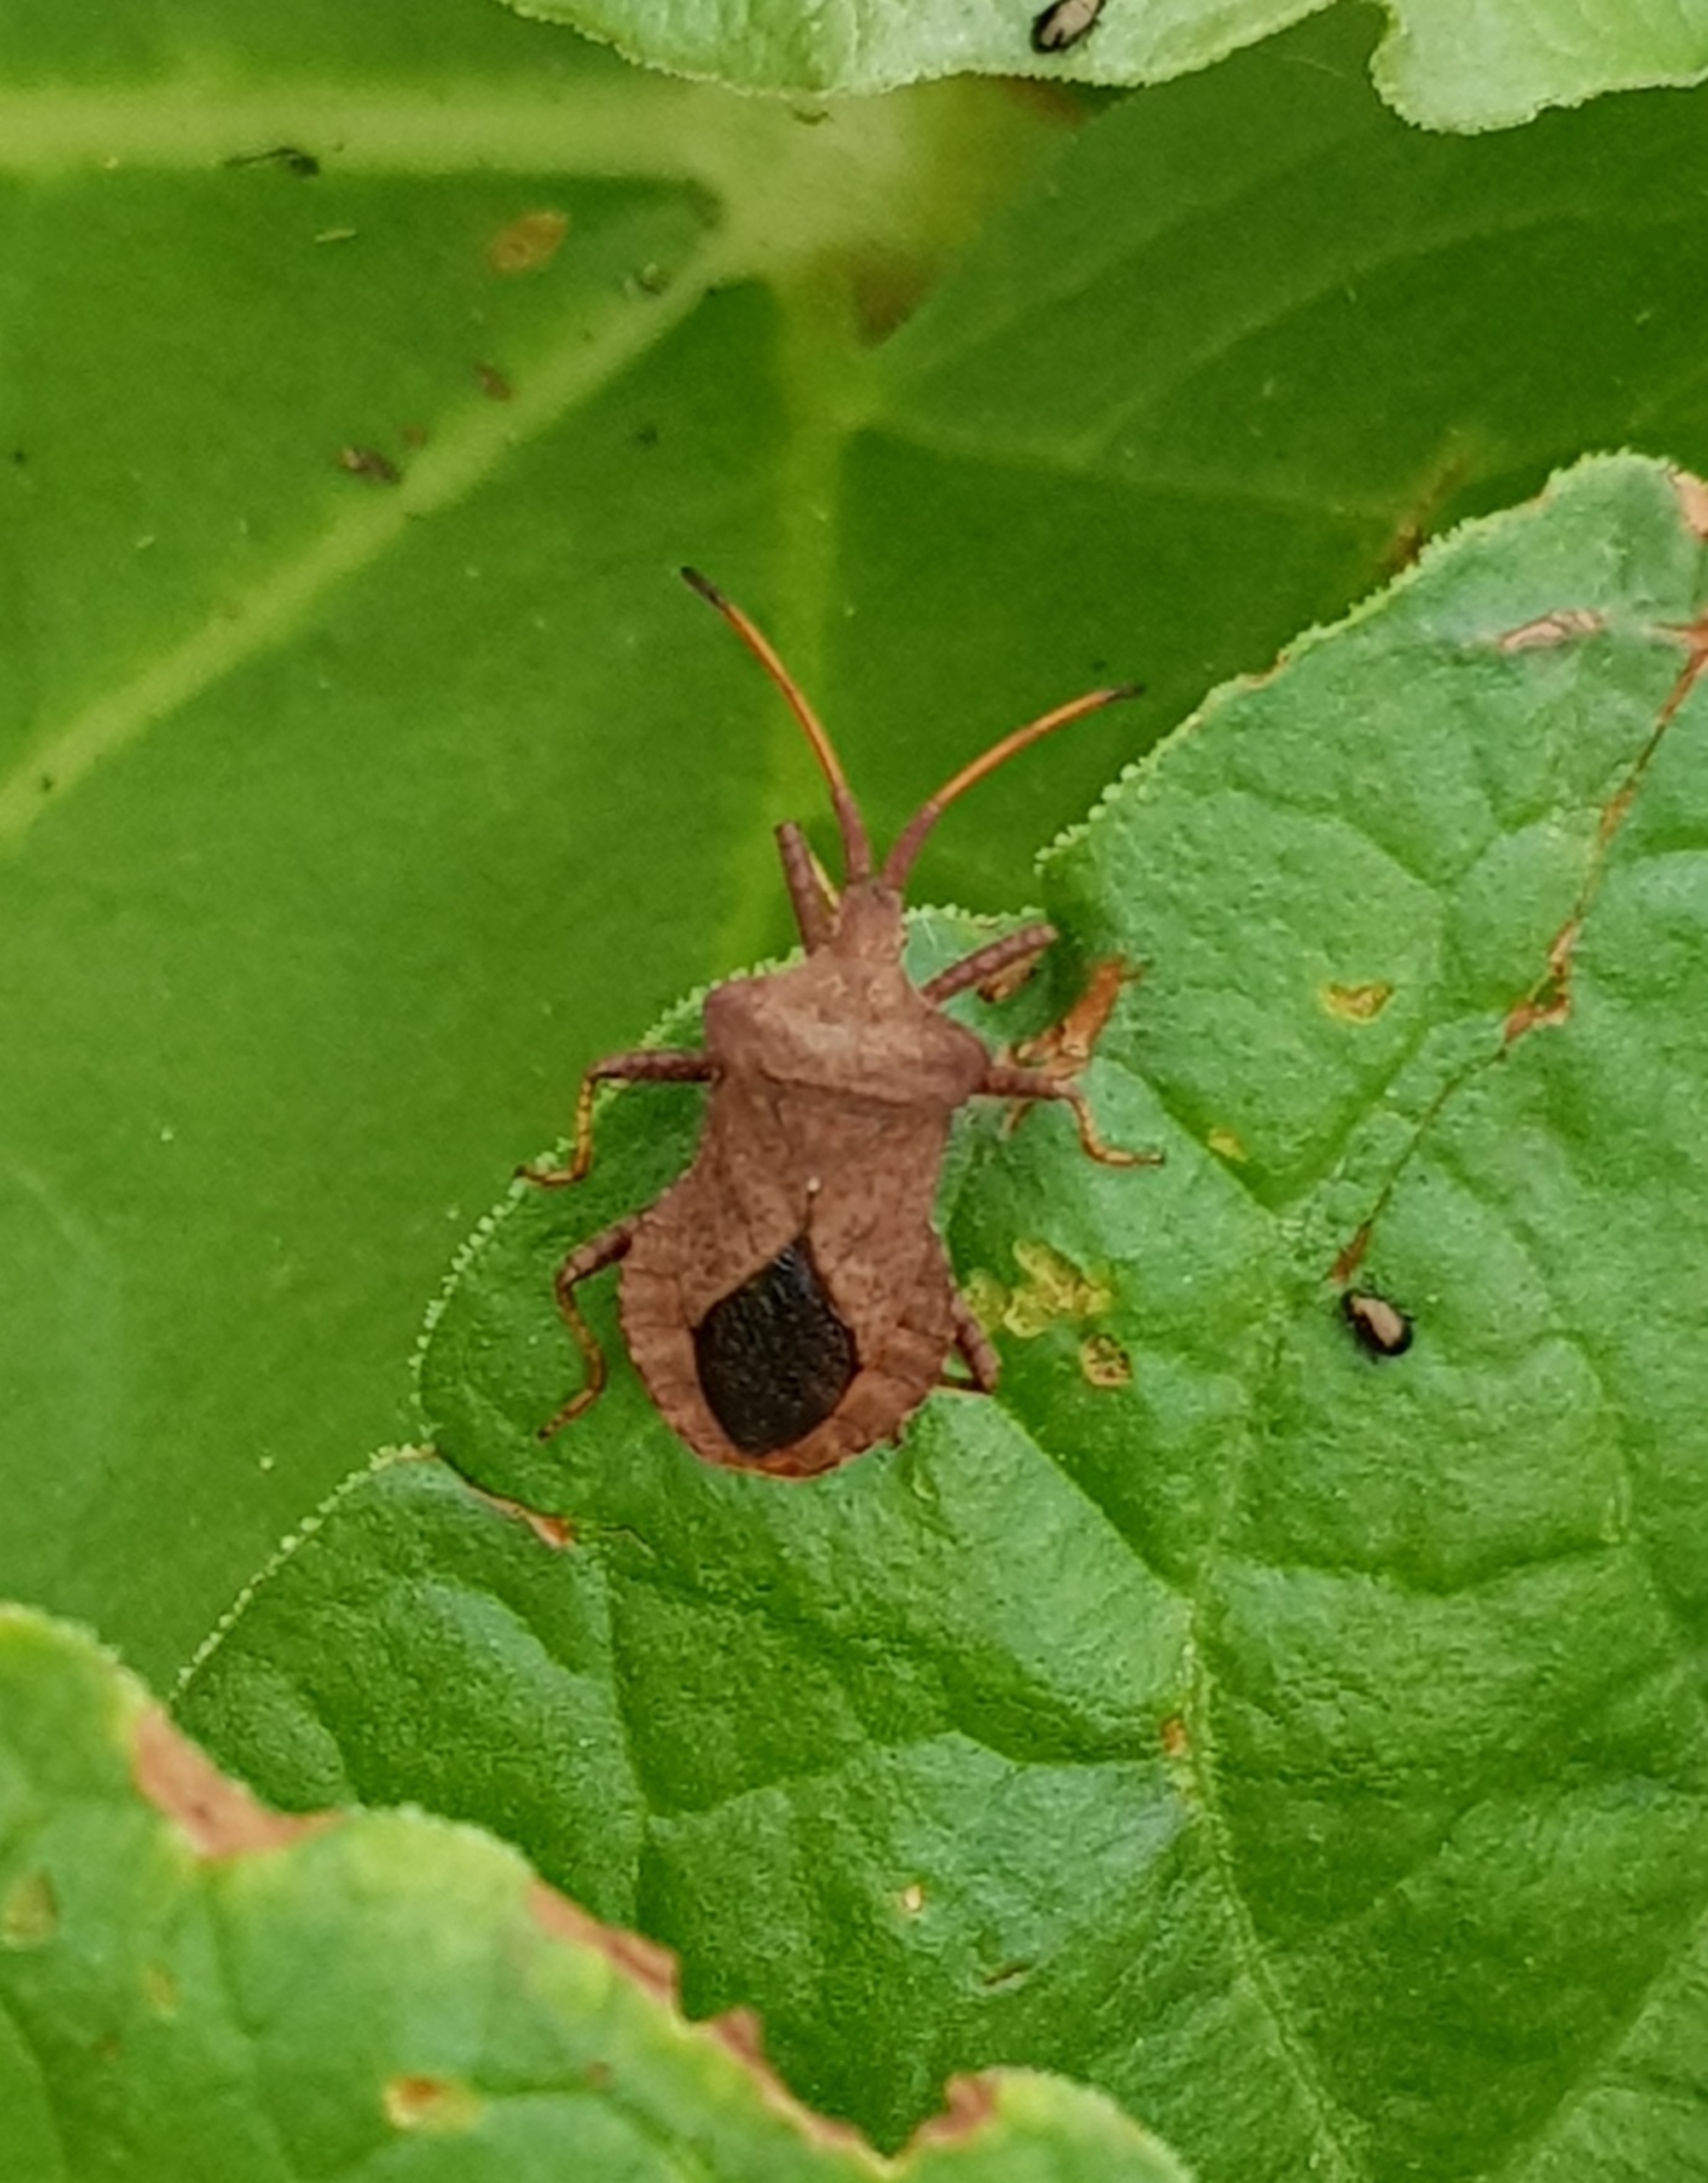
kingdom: Animalia
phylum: Arthropoda
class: Insecta
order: Hemiptera
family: Coreidae
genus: Coreus
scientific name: Coreus marginatus
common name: Skræppetæge
